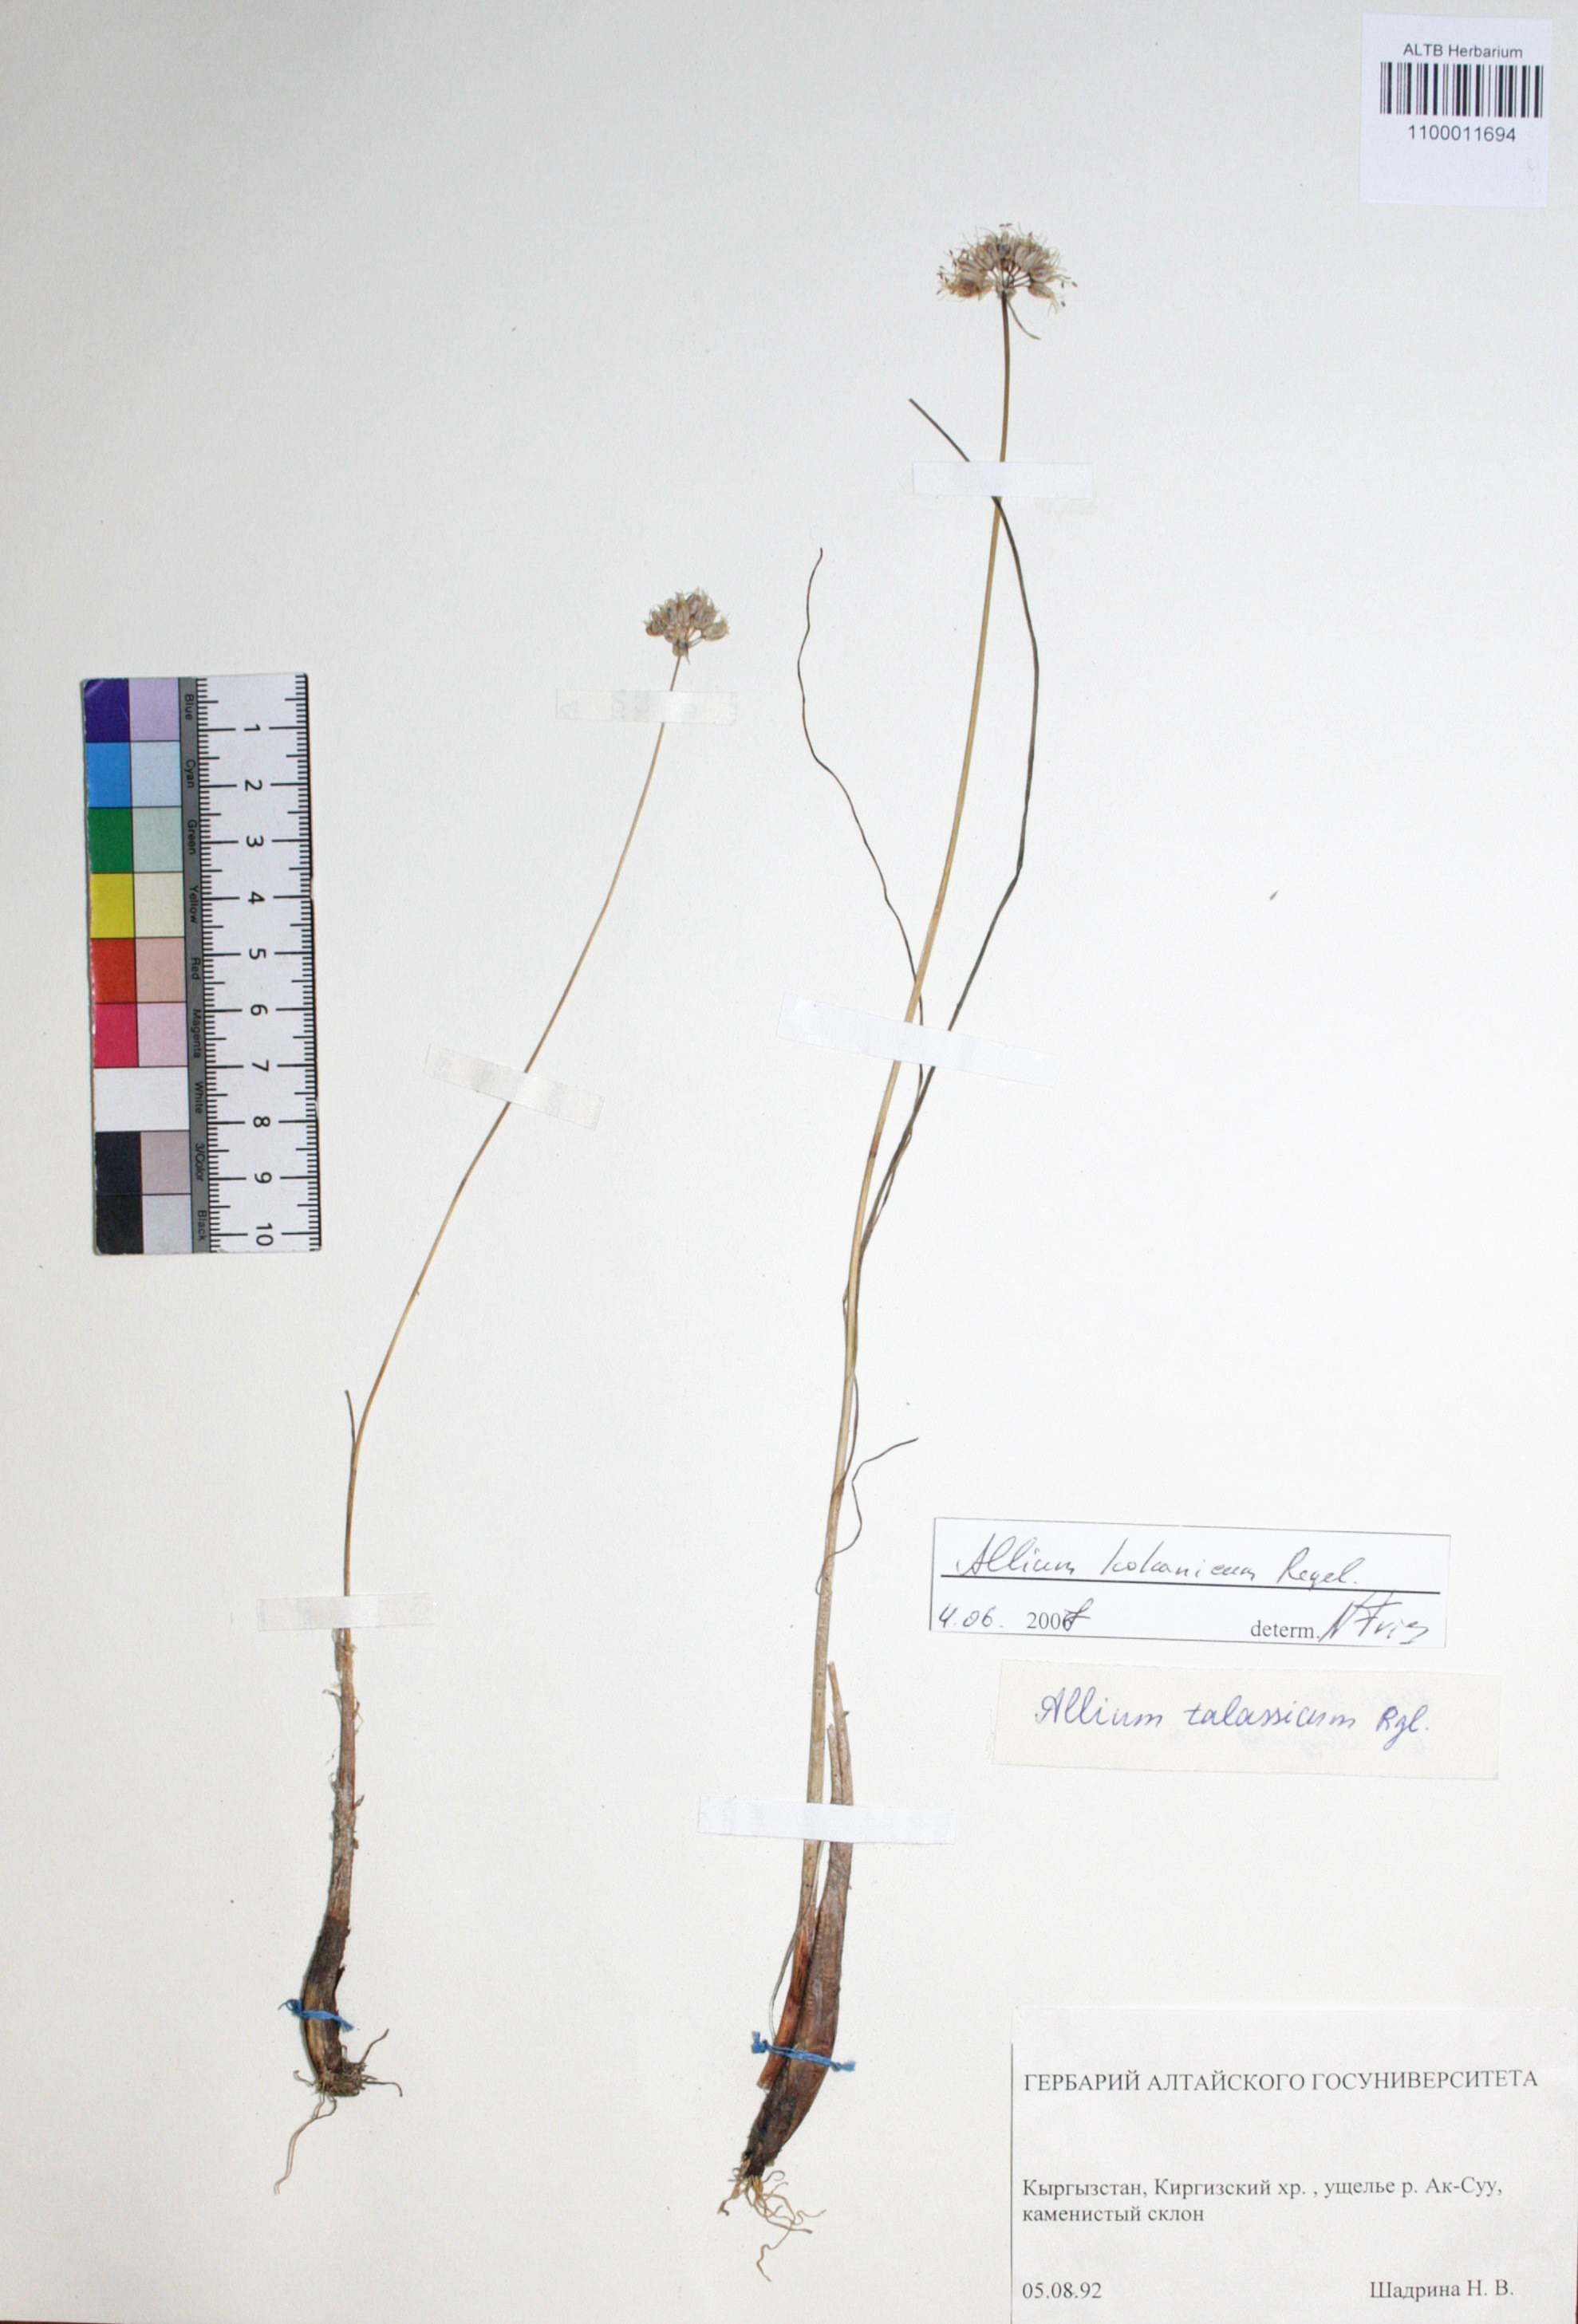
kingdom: Plantae
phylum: Tracheophyta
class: Liliopsida
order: Asparagales
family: Amaryllidaceae
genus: Allium
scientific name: Allium talassicum
